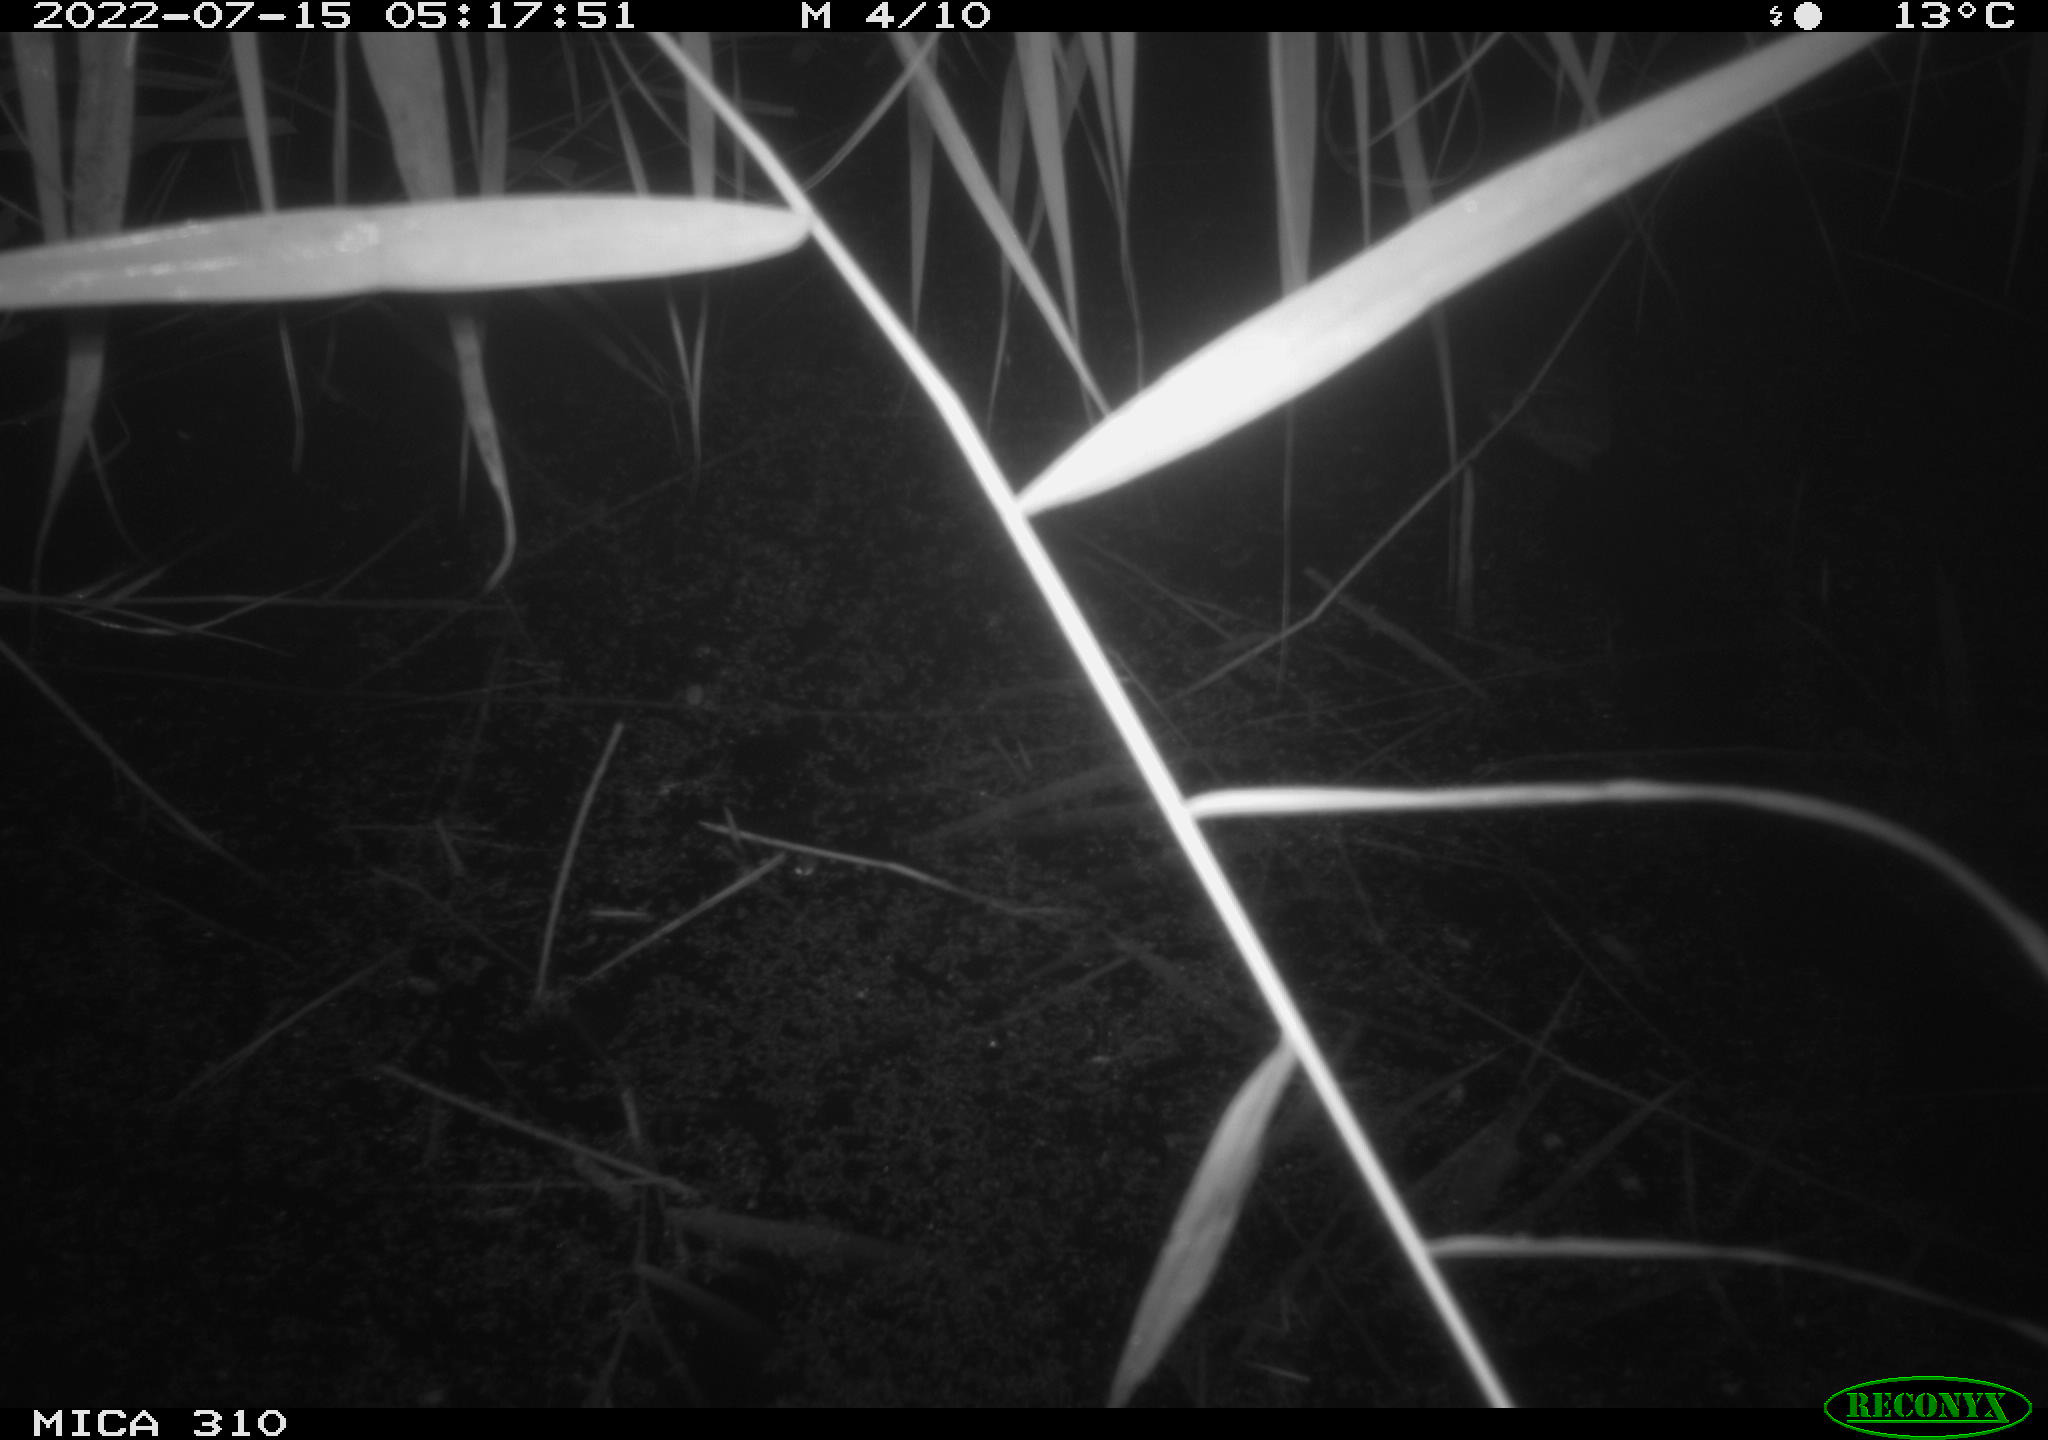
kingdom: Animalia
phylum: Chordata
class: Aves
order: Anseriformes
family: Anatidae
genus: Anas
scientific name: Anas platyrhynchos
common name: Mallard
